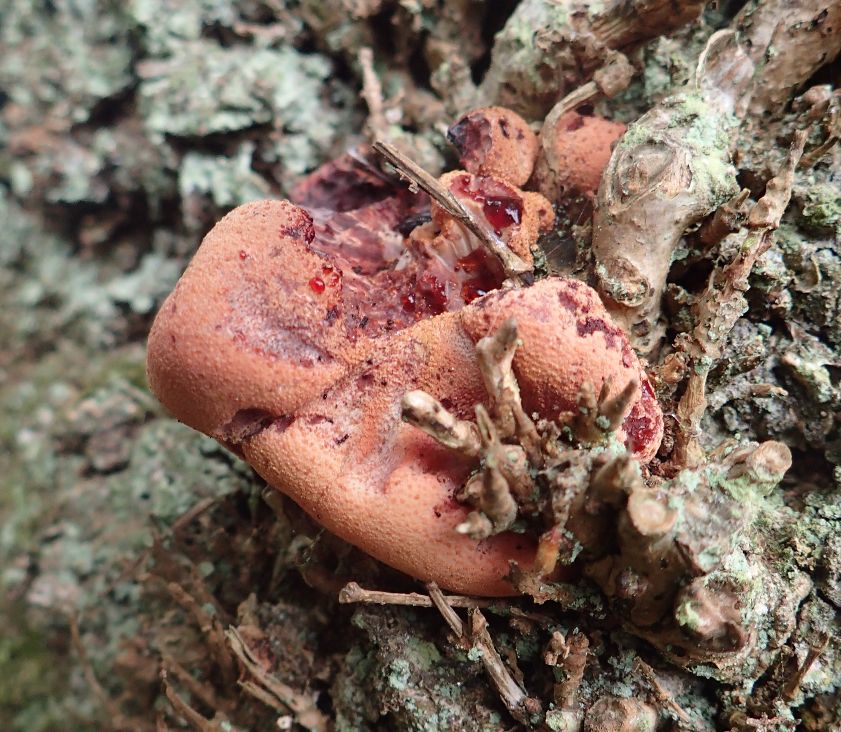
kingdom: Fungi
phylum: Basidiomycota
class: Agaricomycetes
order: Agaricales
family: Fistulinaceae
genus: Fistulina
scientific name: Fistulina hepatica
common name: oksetunge
